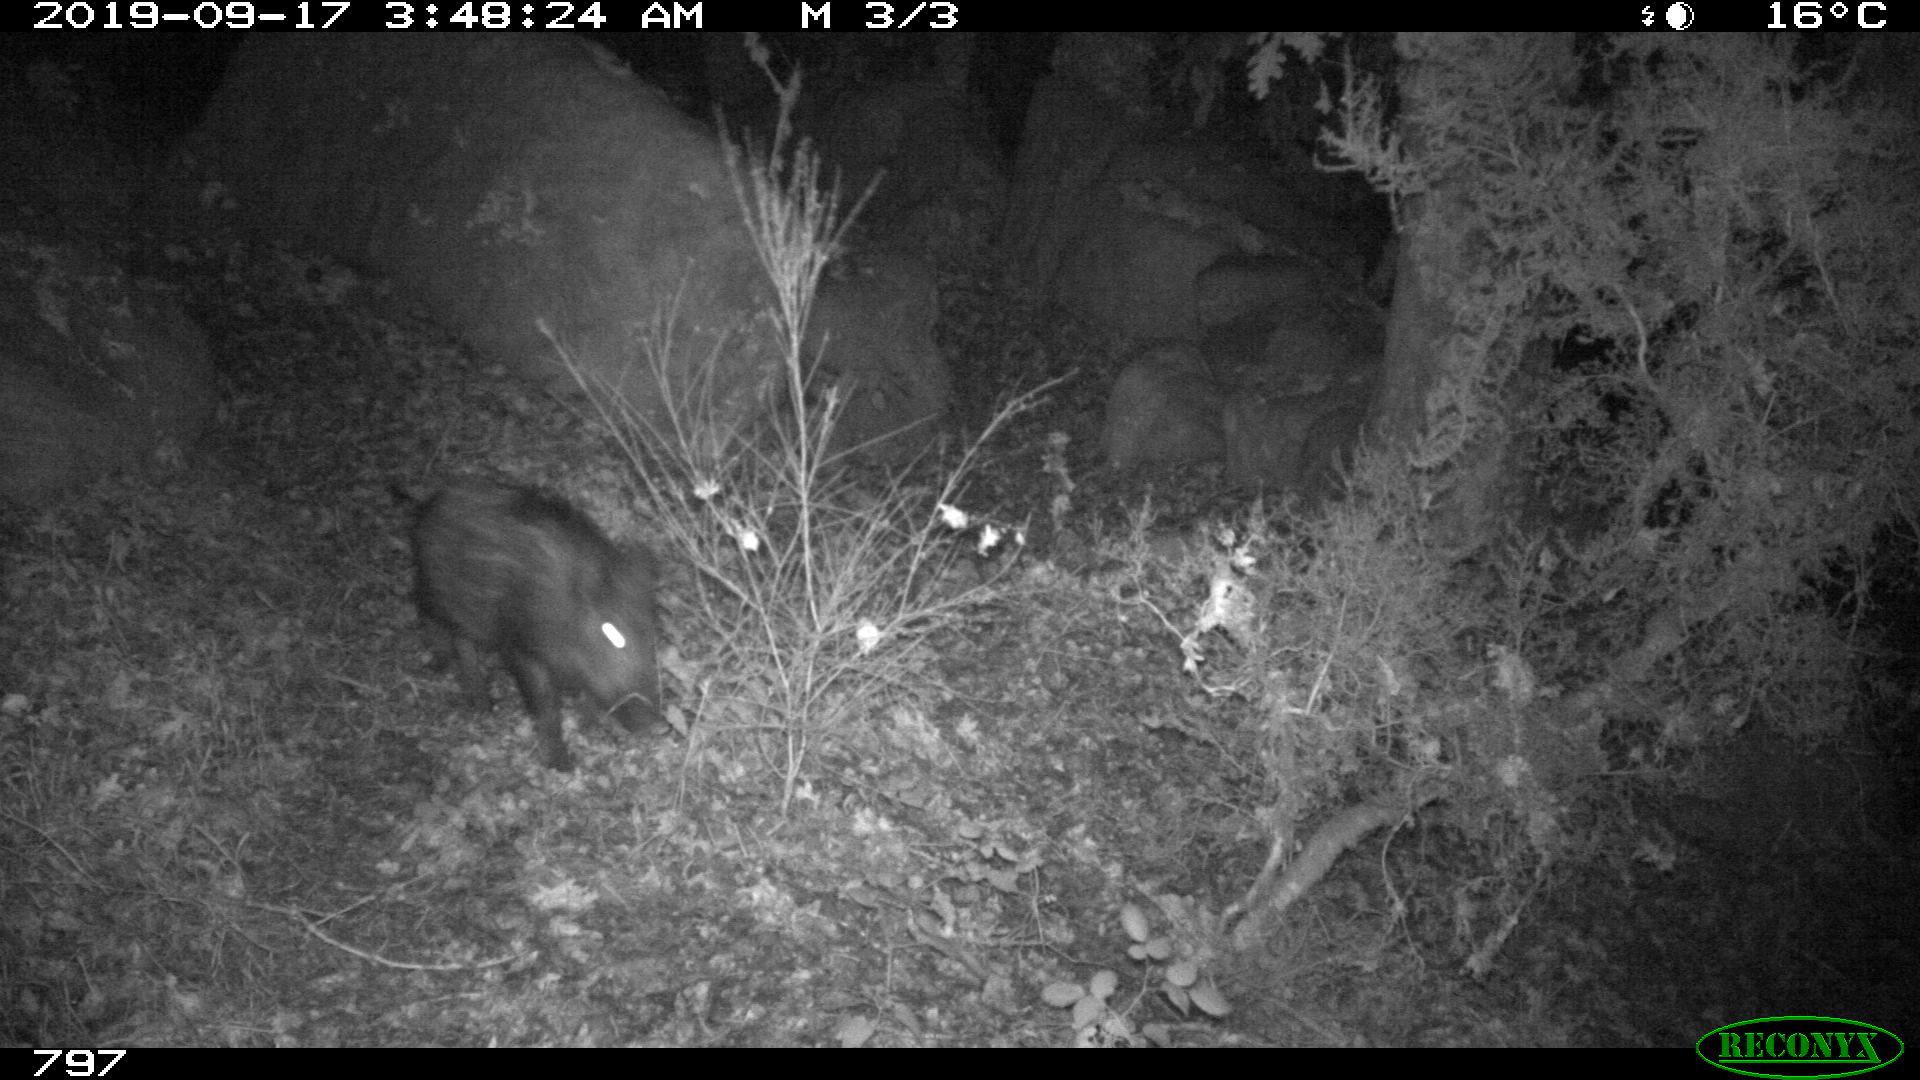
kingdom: Animalia
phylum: Chordata
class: Mammalia
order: Artiodactyla
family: Suidae
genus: Sus
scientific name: Sus scrofa
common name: Wild boar
